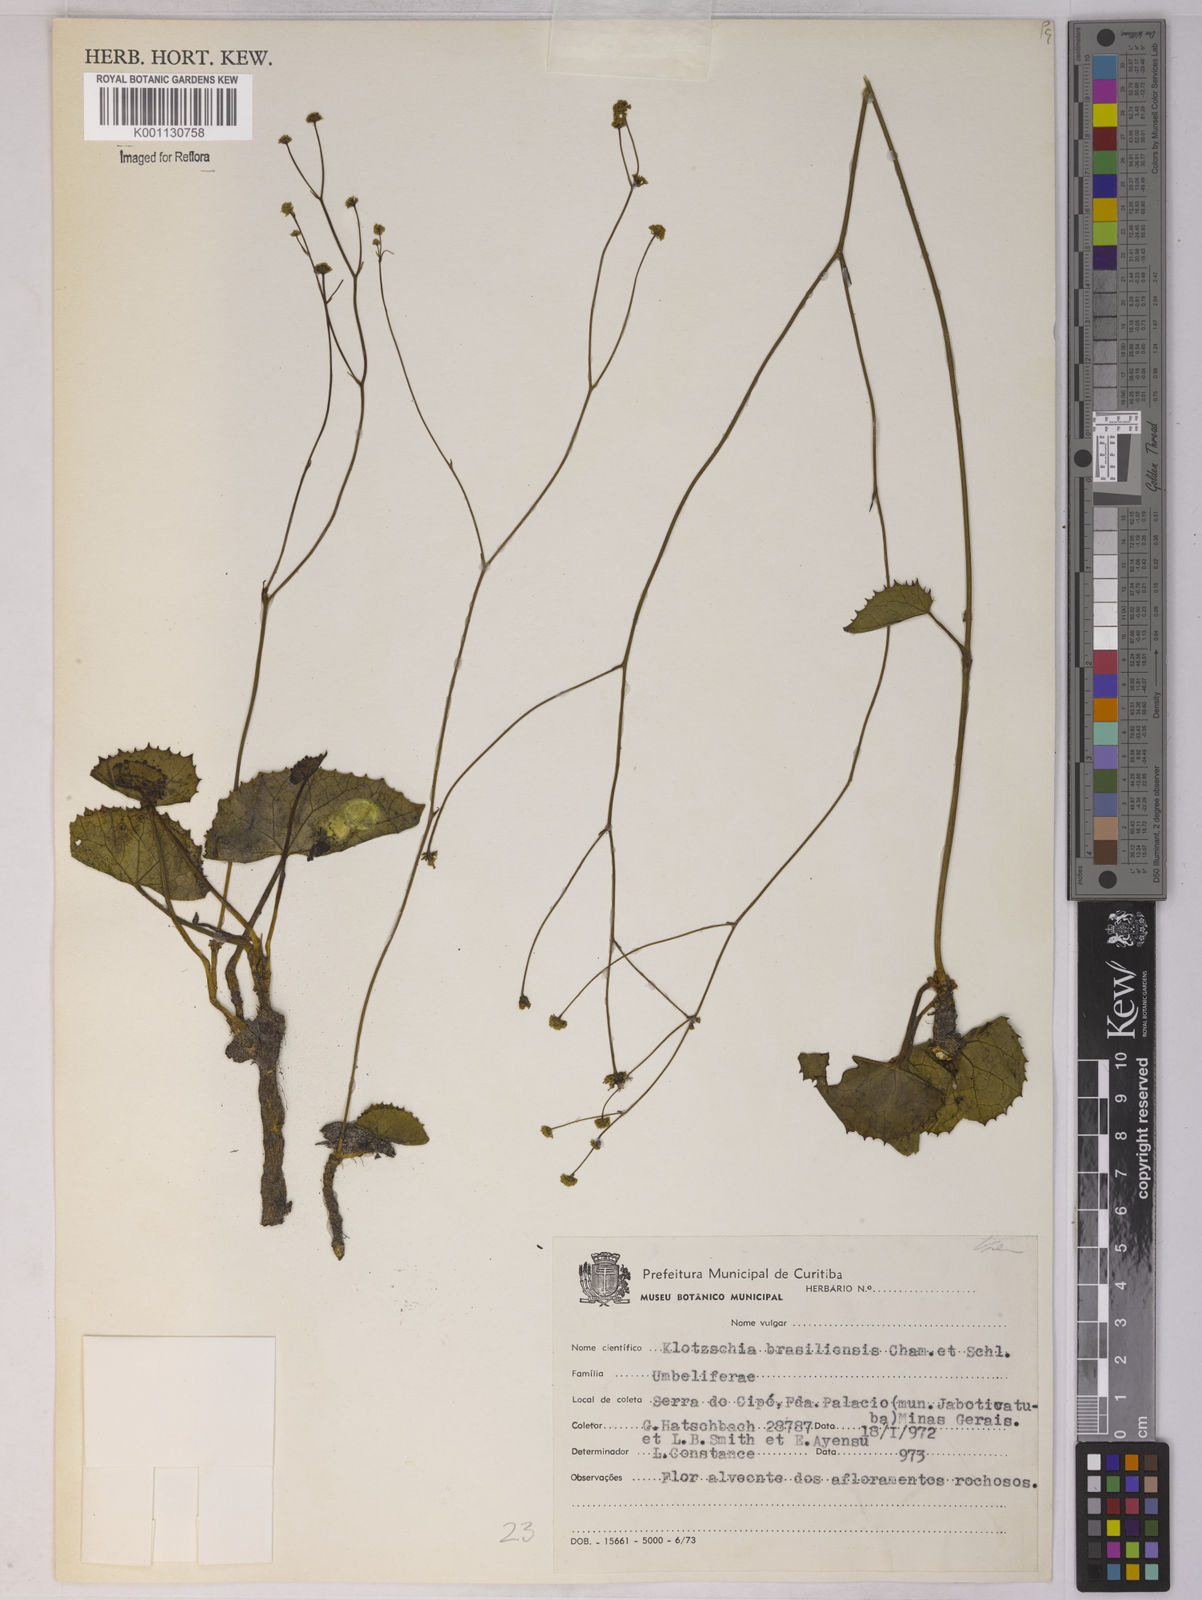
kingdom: Plantae
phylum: Tracheophyta
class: Magnoliopsida
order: Apiales
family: Apiaceae
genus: Klotzschia
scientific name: Klotzschia rhizophylla
